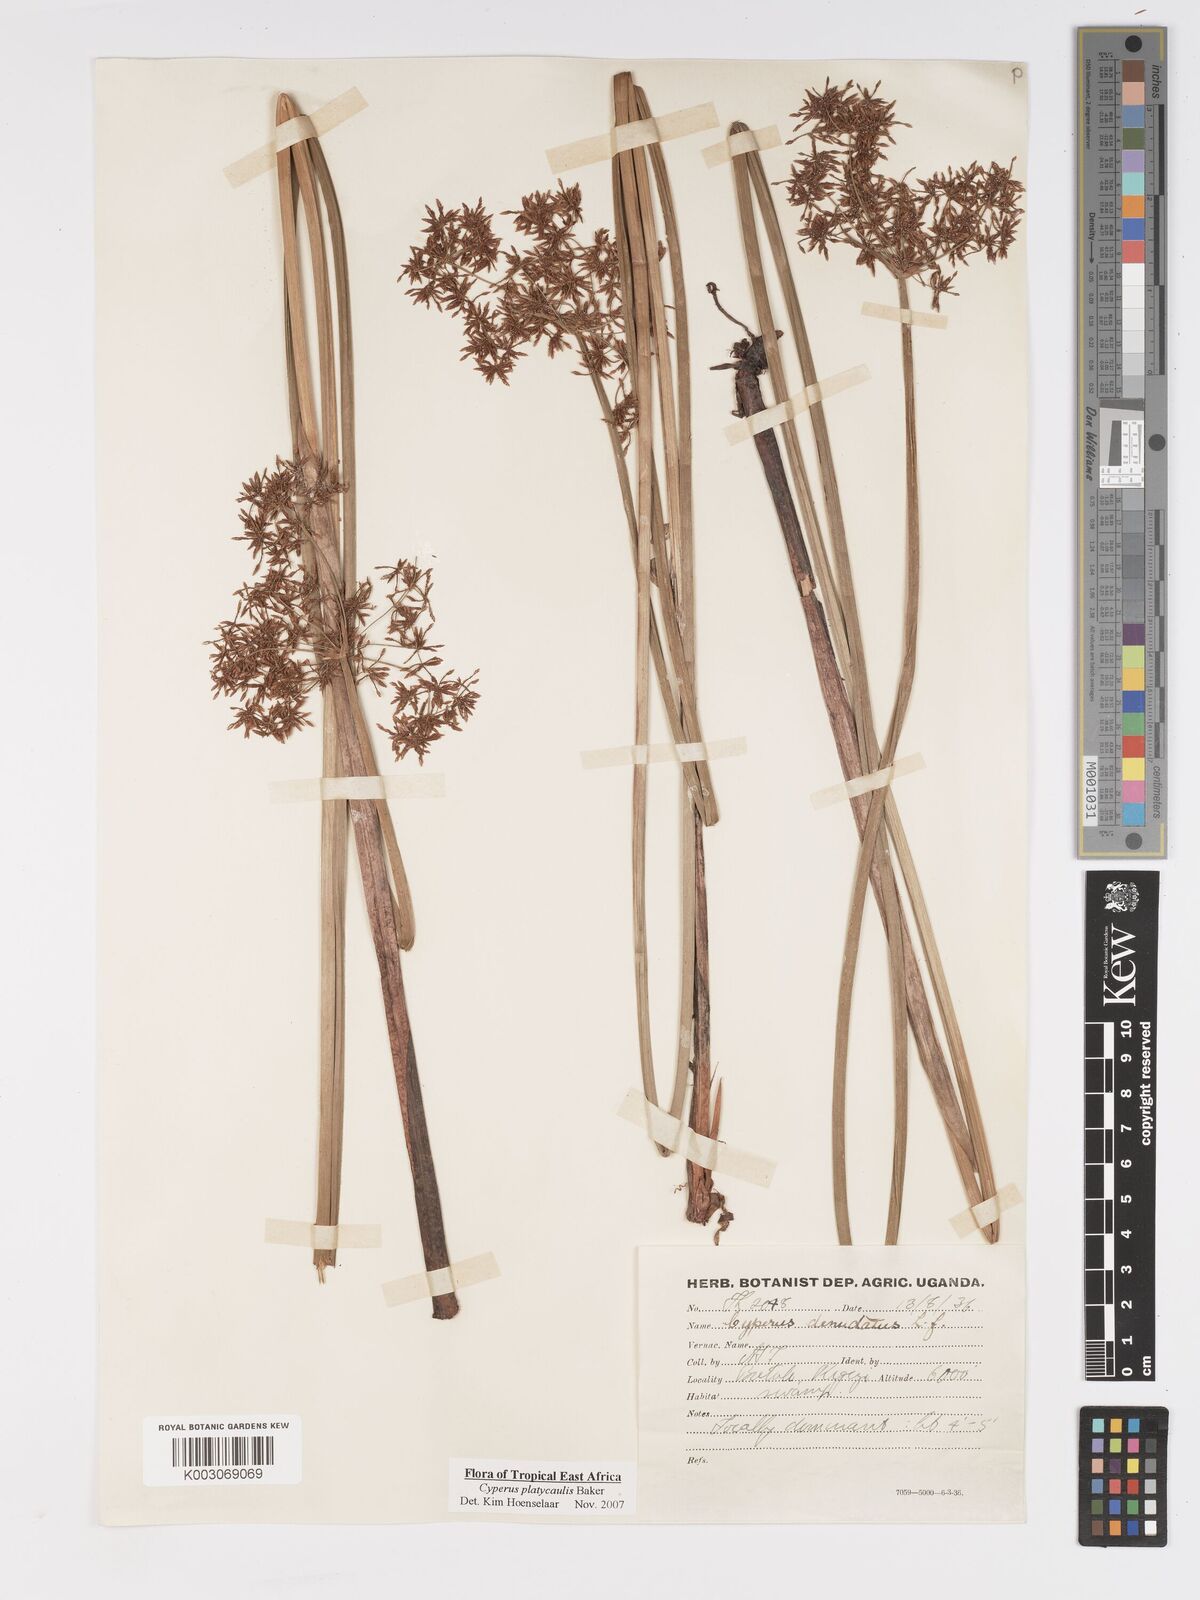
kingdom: Plantae
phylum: Tracheophyta
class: Liliopsida
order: Poales
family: Cyperaceae
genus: Cyperus
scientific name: Cyperus platycaulis
